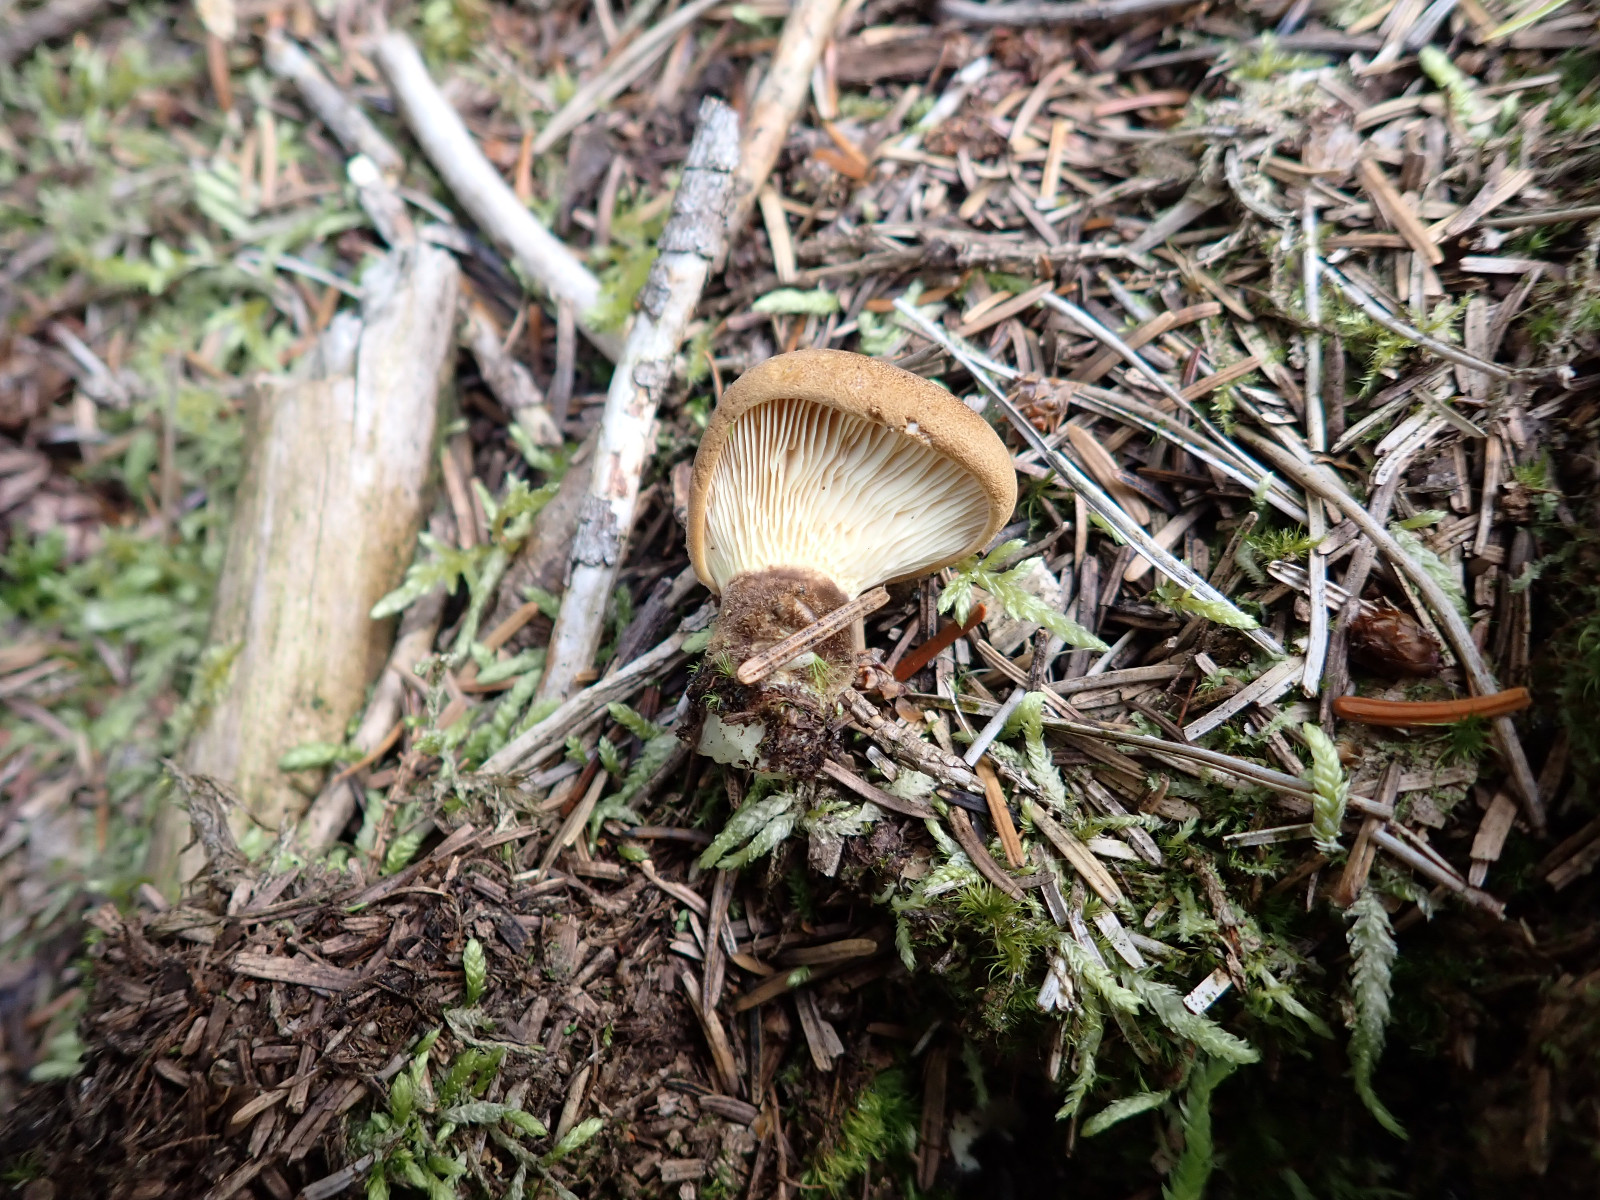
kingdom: Fungi
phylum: Basidiomycota
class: Agaricomycetes
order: Boletales
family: Tapinellaceae
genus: Tapinella
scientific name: Tapinella atrotomentosa
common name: sortfiltet viftesvamp
